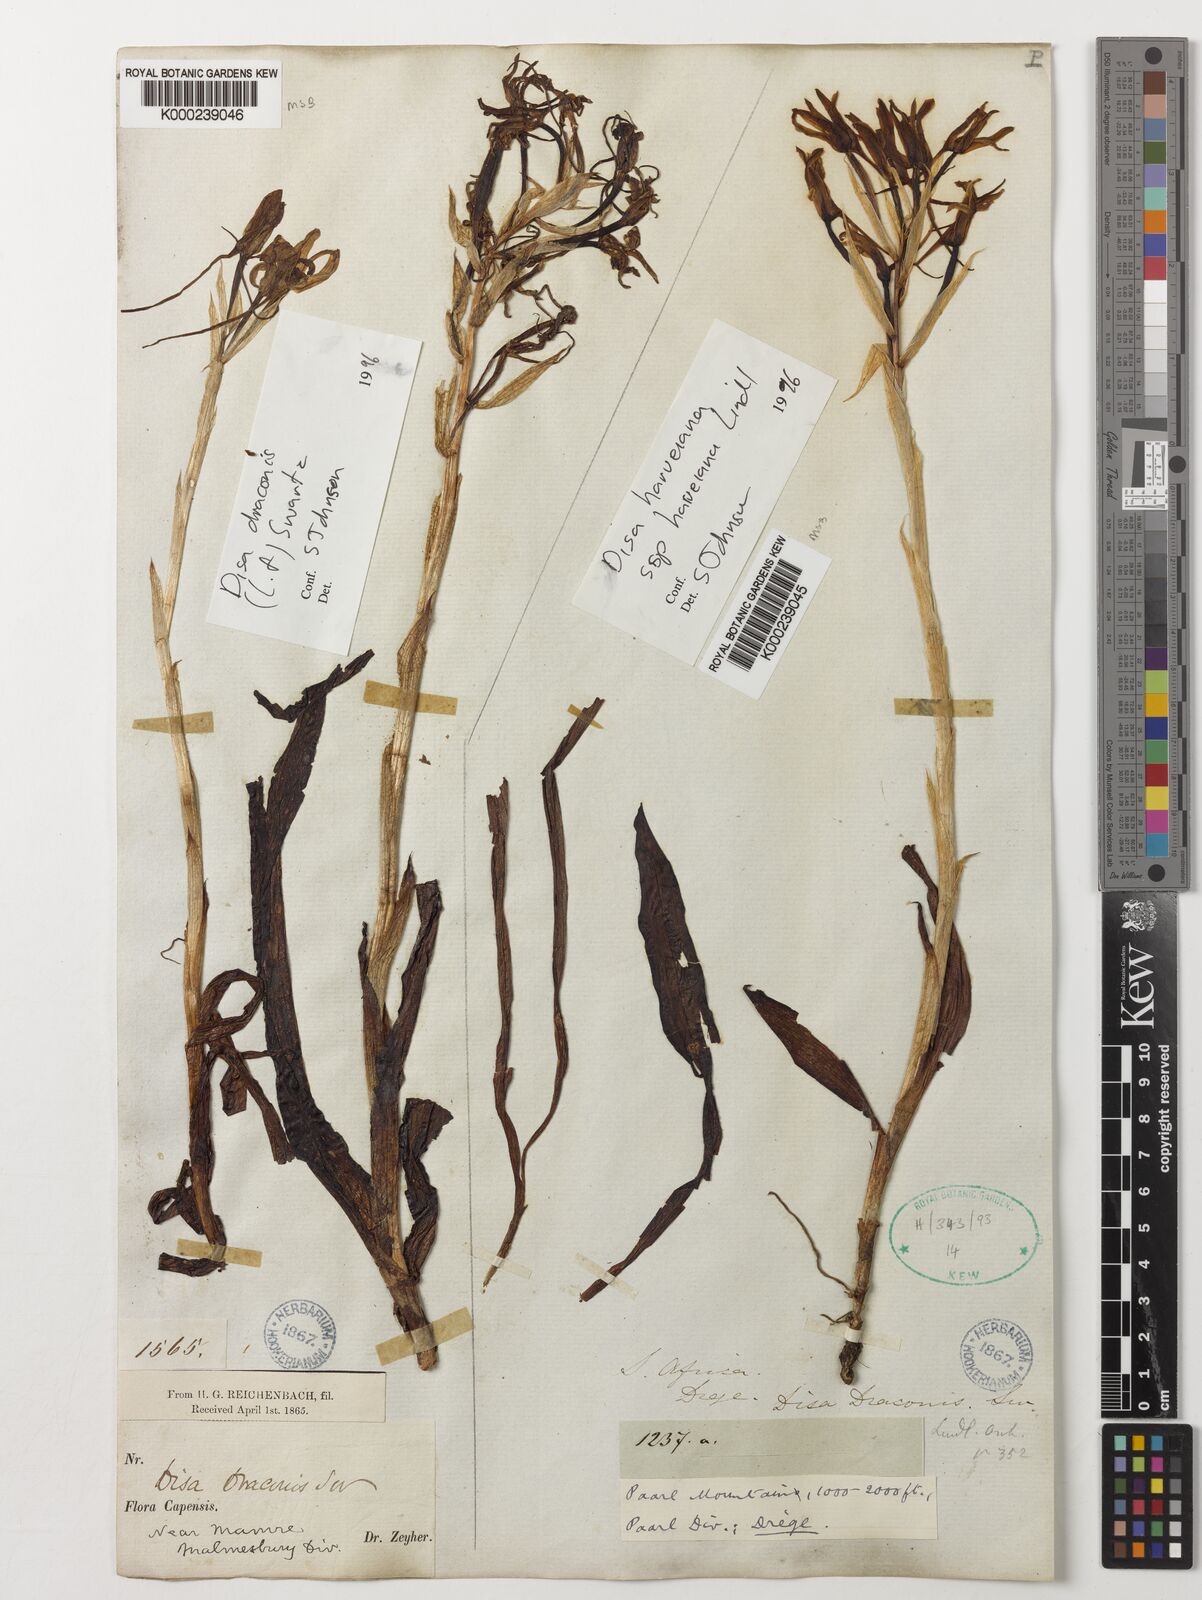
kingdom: Plantae
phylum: Tracheophyta
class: Liliopsida
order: Asparagales
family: Orchidaceae
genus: Disa
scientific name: Disa draconis
